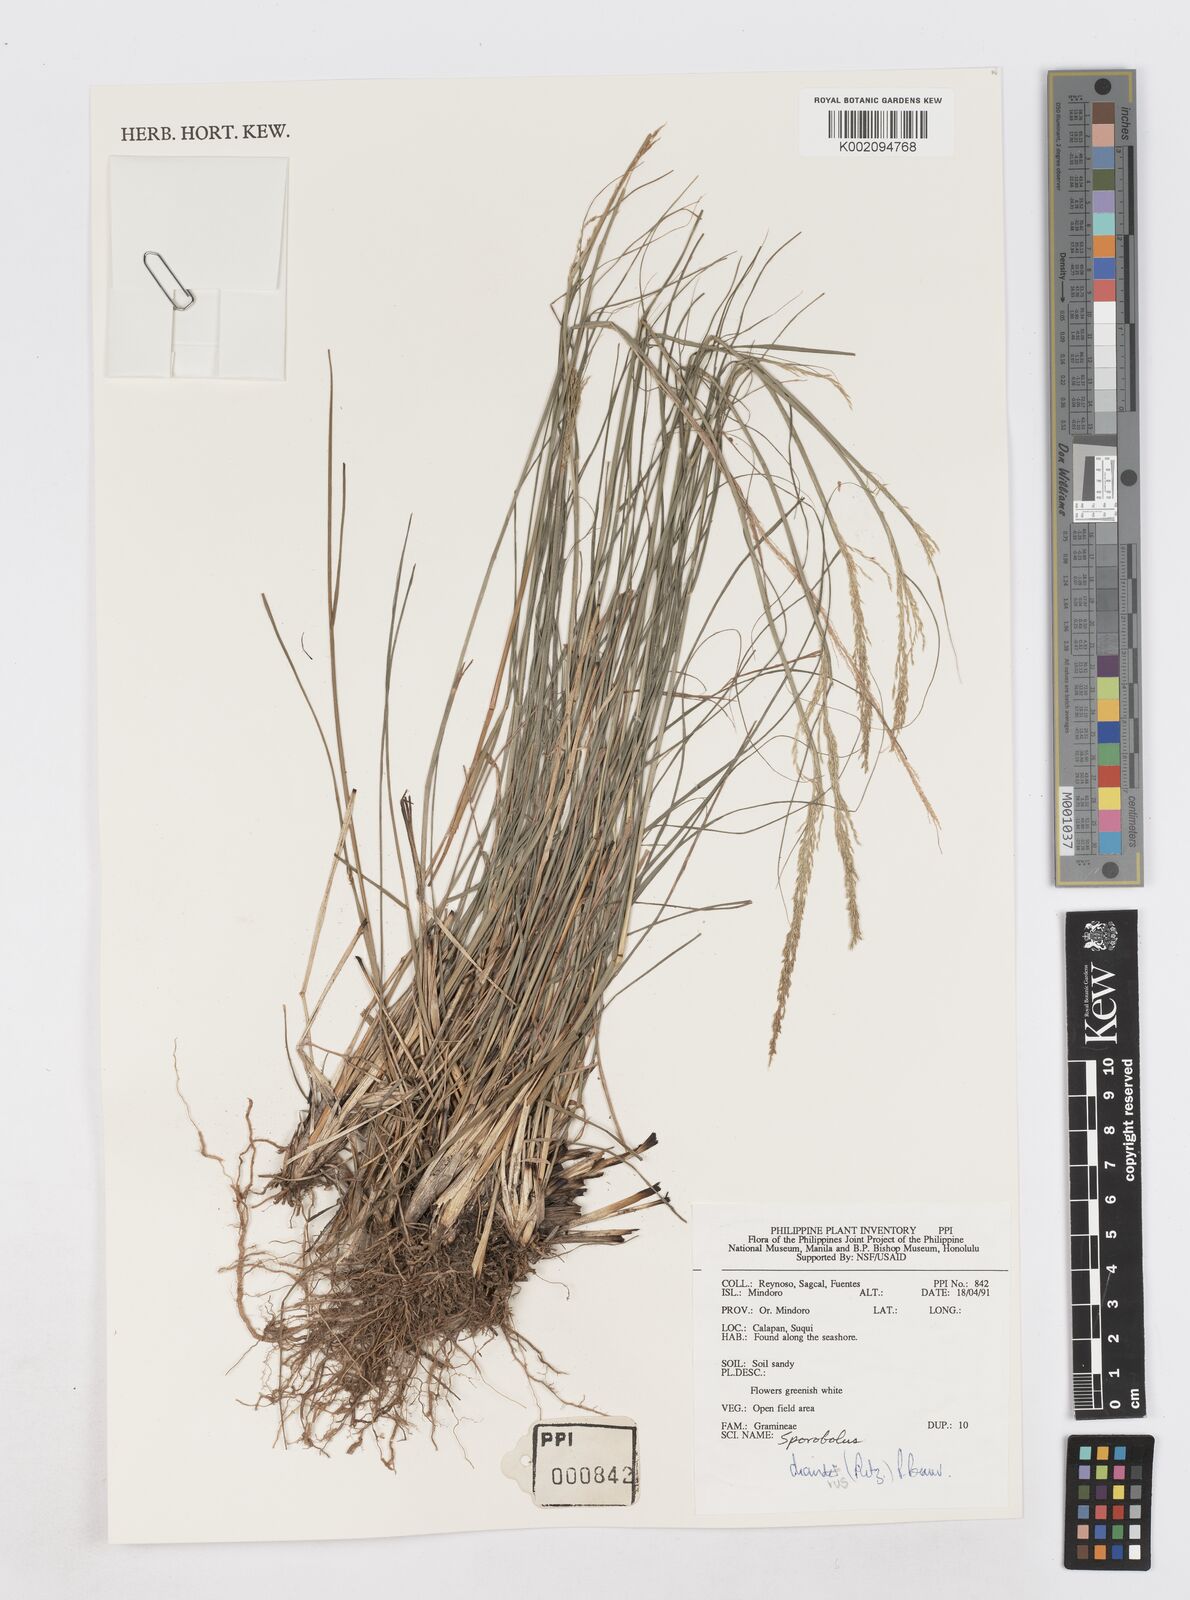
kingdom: Plantae
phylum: Tracheophyta
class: Liliopsida
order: Poales
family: Poaceae
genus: Sporobolus
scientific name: Sporobolus diandrus
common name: Tussock dropseed
